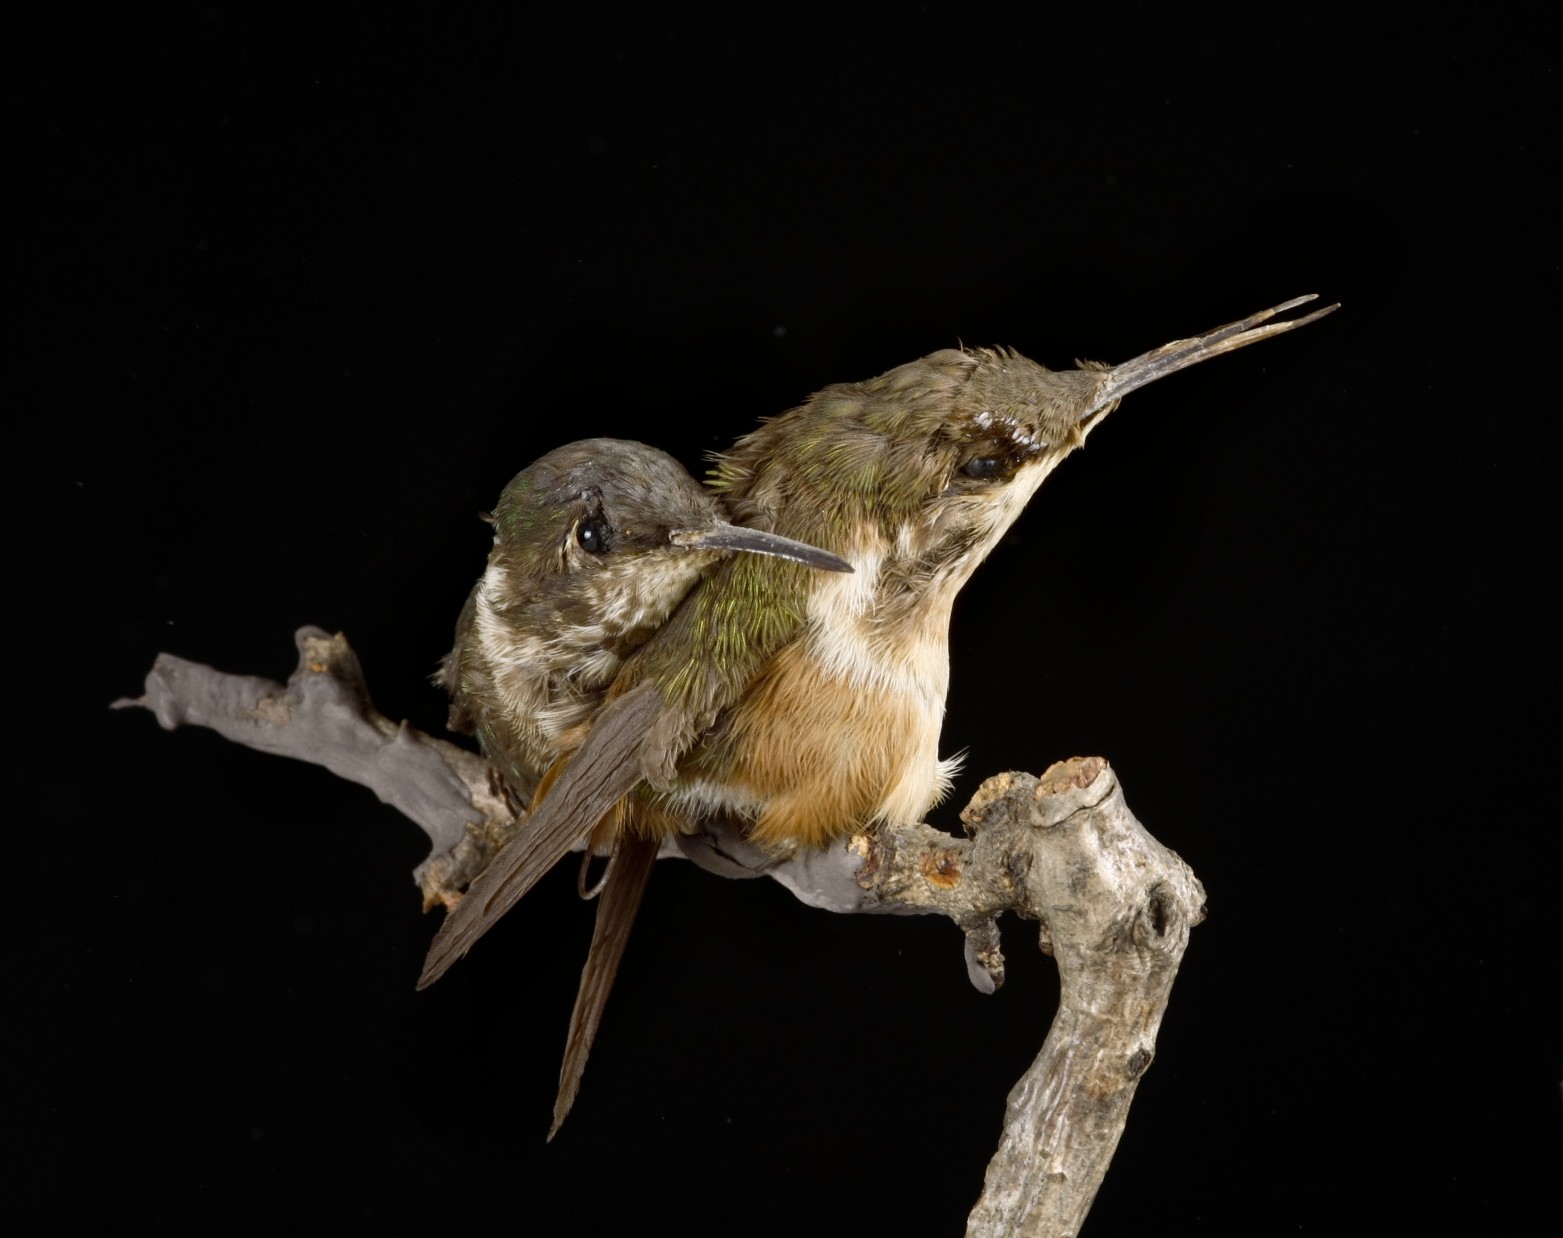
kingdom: Animalia
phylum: Chordata
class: Aves
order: Apodiformes
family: Trochilidae
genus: Chaetocercus
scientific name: Chaetocercus heliodor
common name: Gorgeted woodstar
